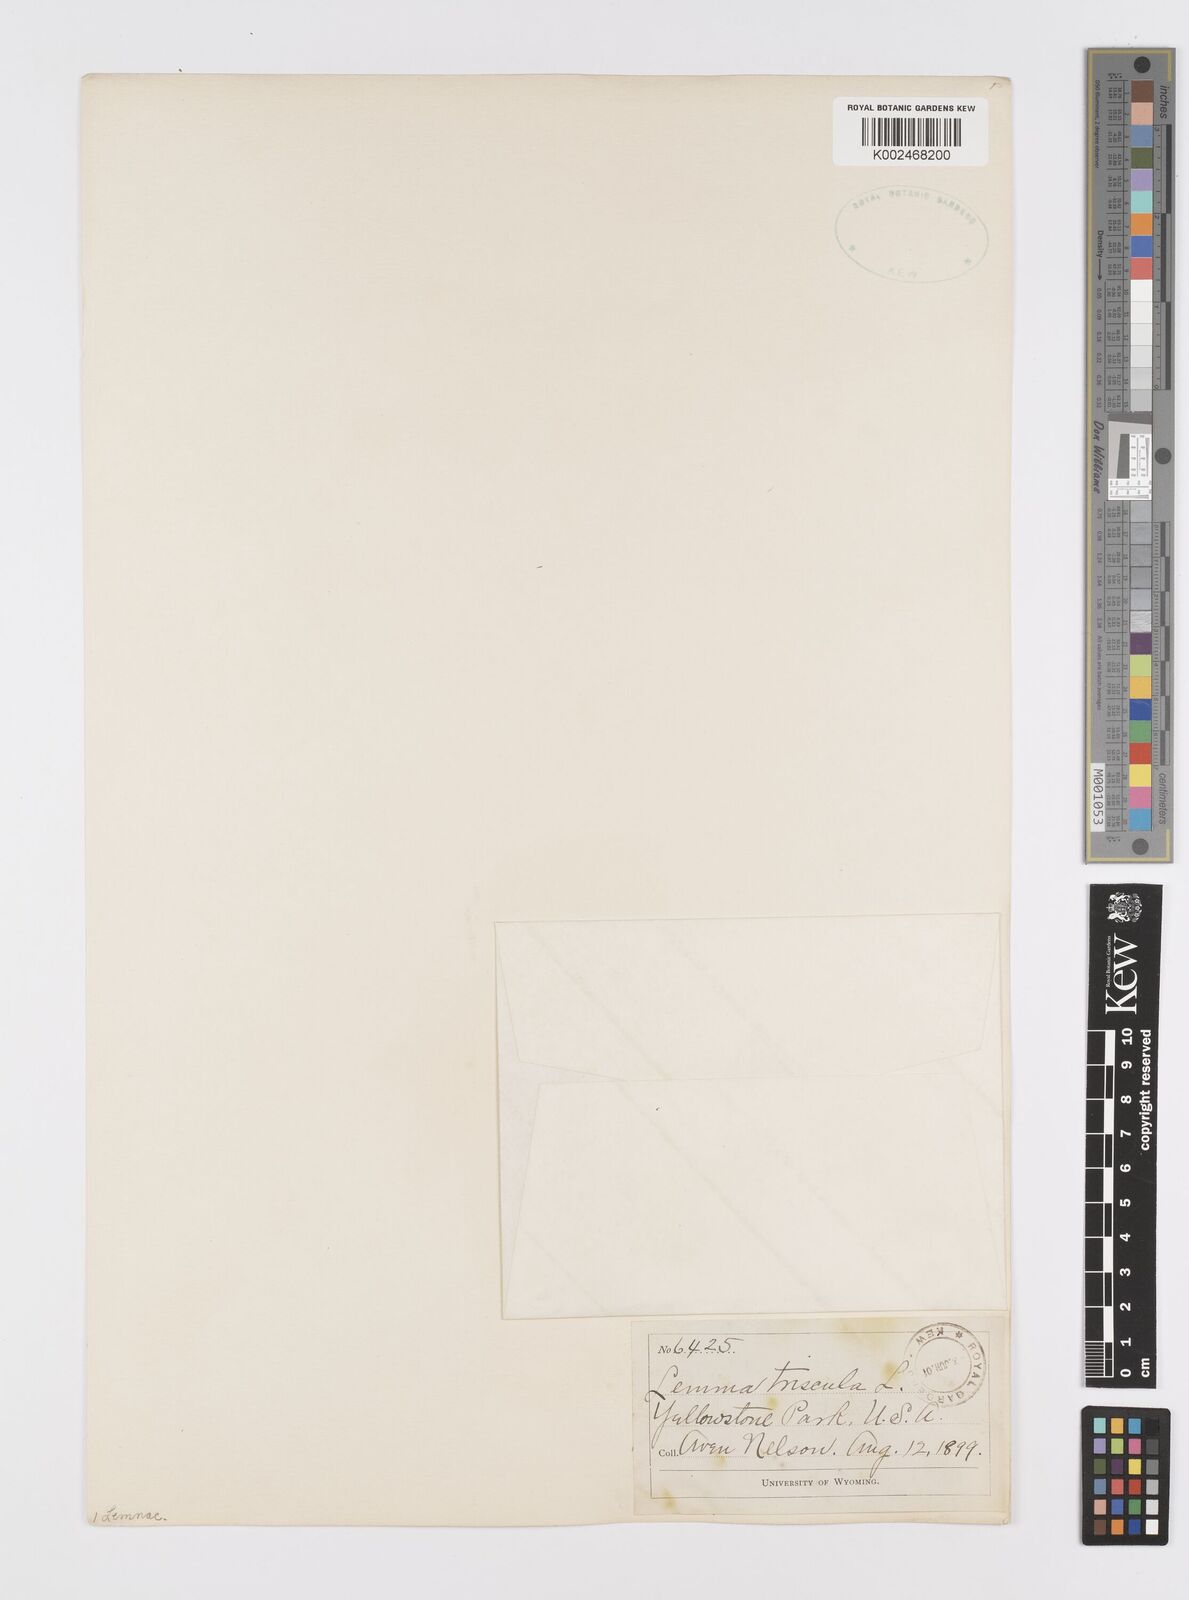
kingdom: Plantae
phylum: Tracheophyta
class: Liliopsida
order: Alismatales
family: Araceae
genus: Lemna
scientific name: Lemna trisulca
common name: Ivy-leaved duckweed
